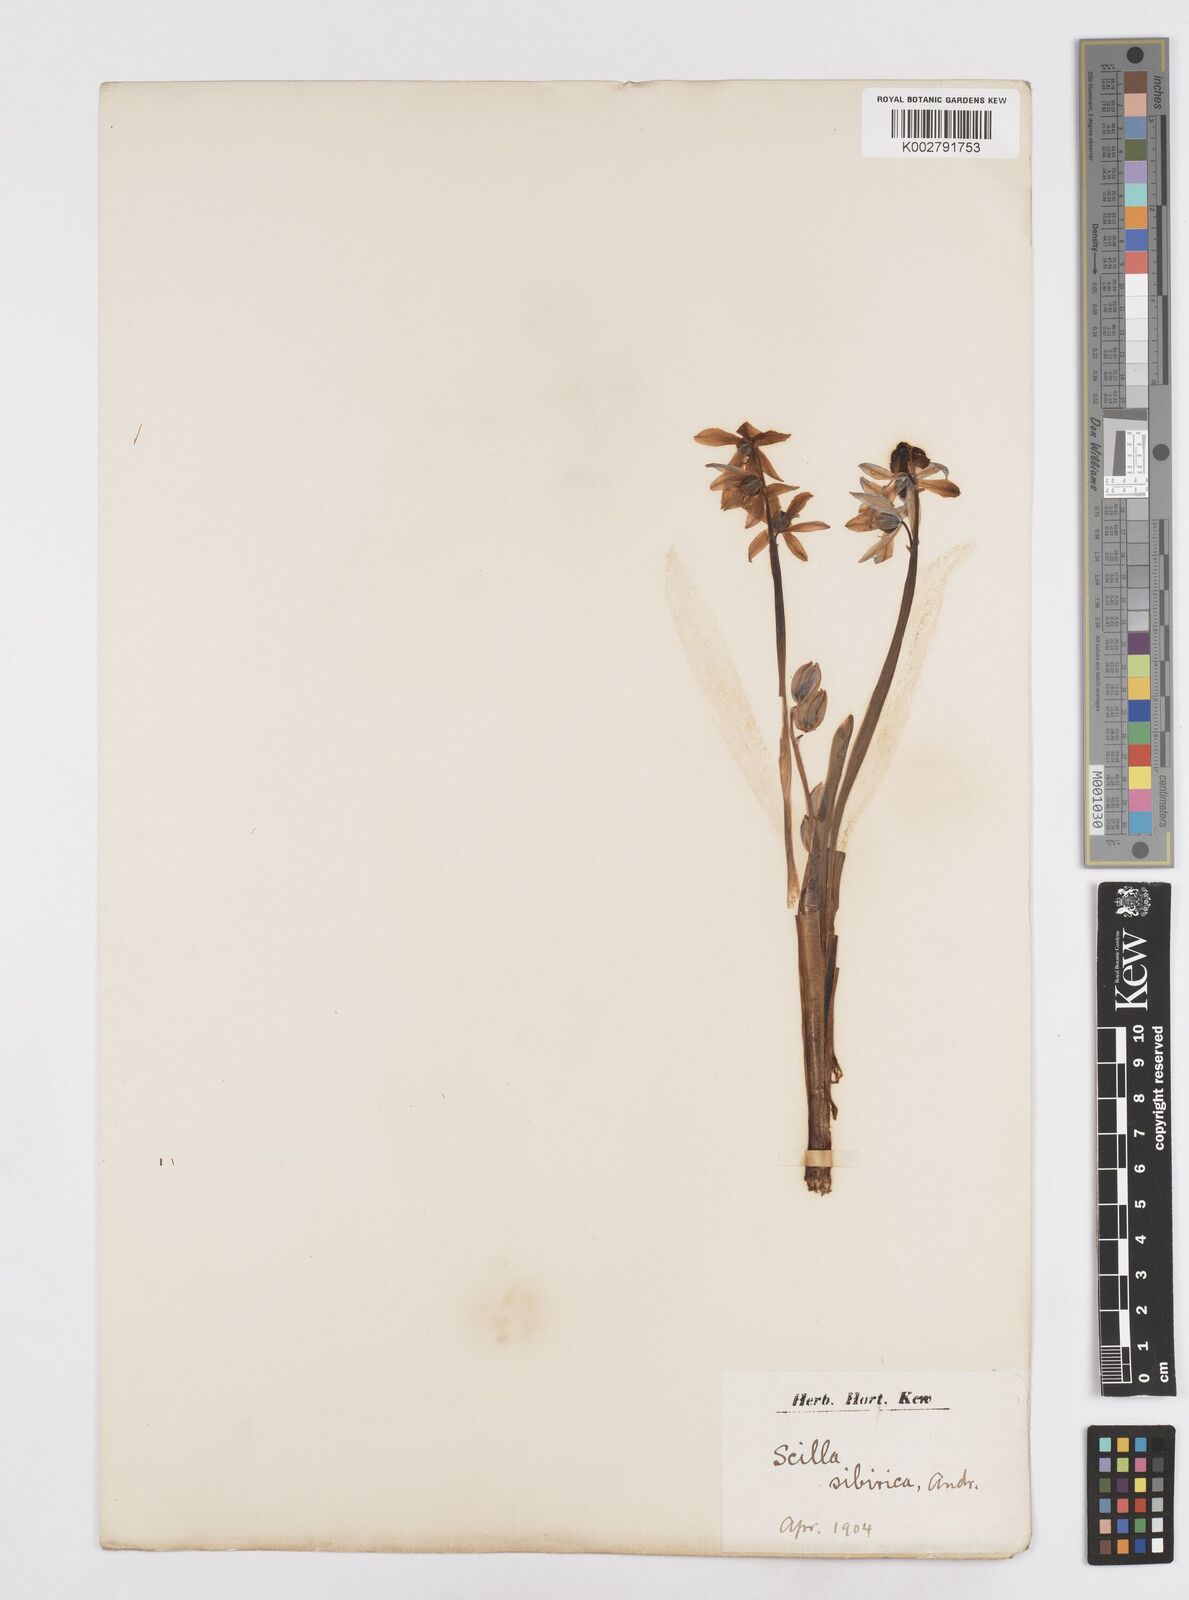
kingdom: Plantae
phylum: Tracheophyta
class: Liliopsida
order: Asparagales
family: Asparagaceae
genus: Scilla
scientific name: Scilla siberica
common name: Siberian squill
